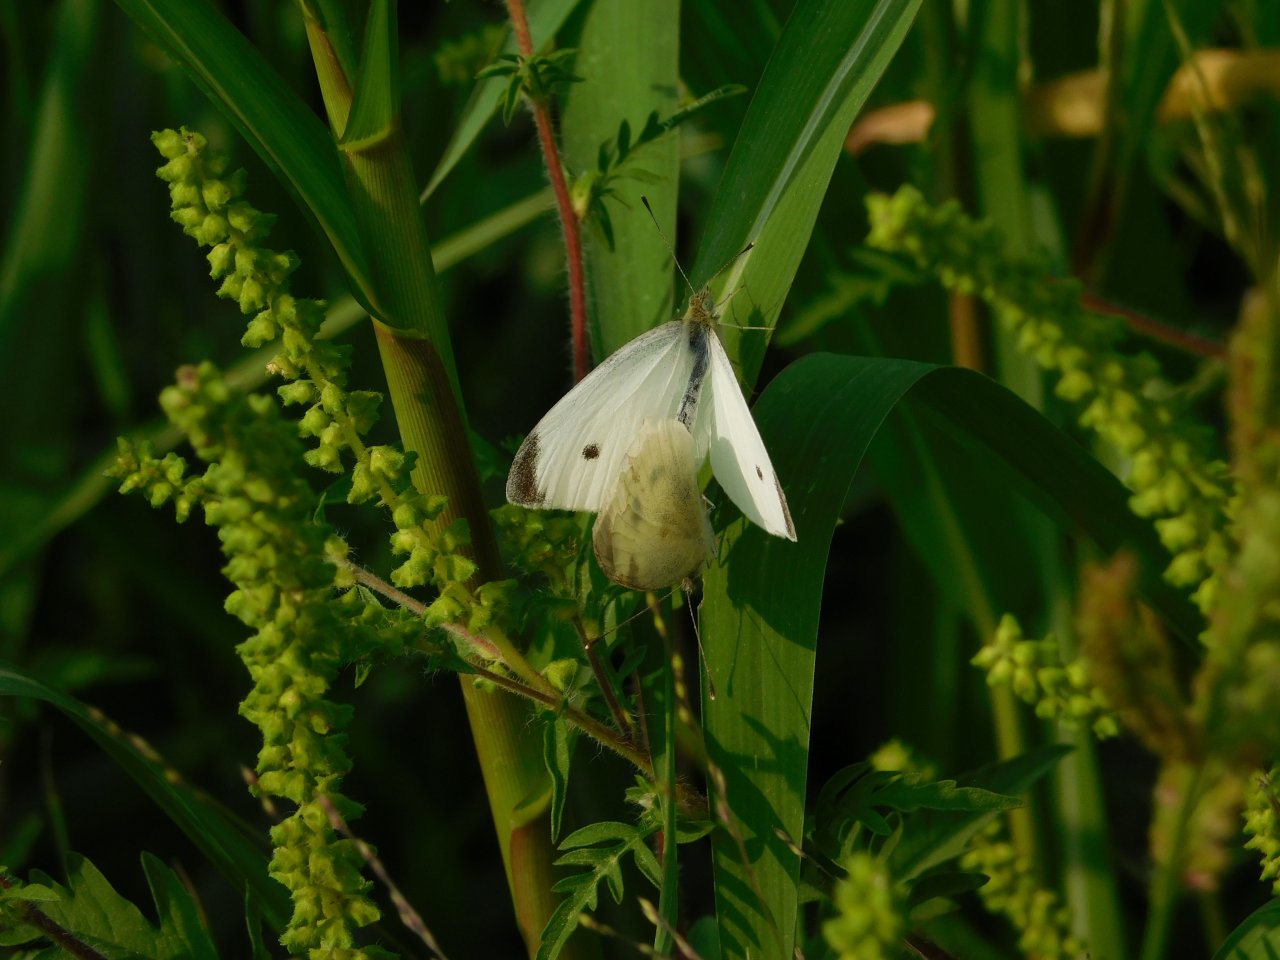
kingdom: Animalia
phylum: Arthropoda
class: Insecta
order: Lepidoptera
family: Pieridae
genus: Pieris
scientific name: Pieris rapae
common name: Cabbage White
